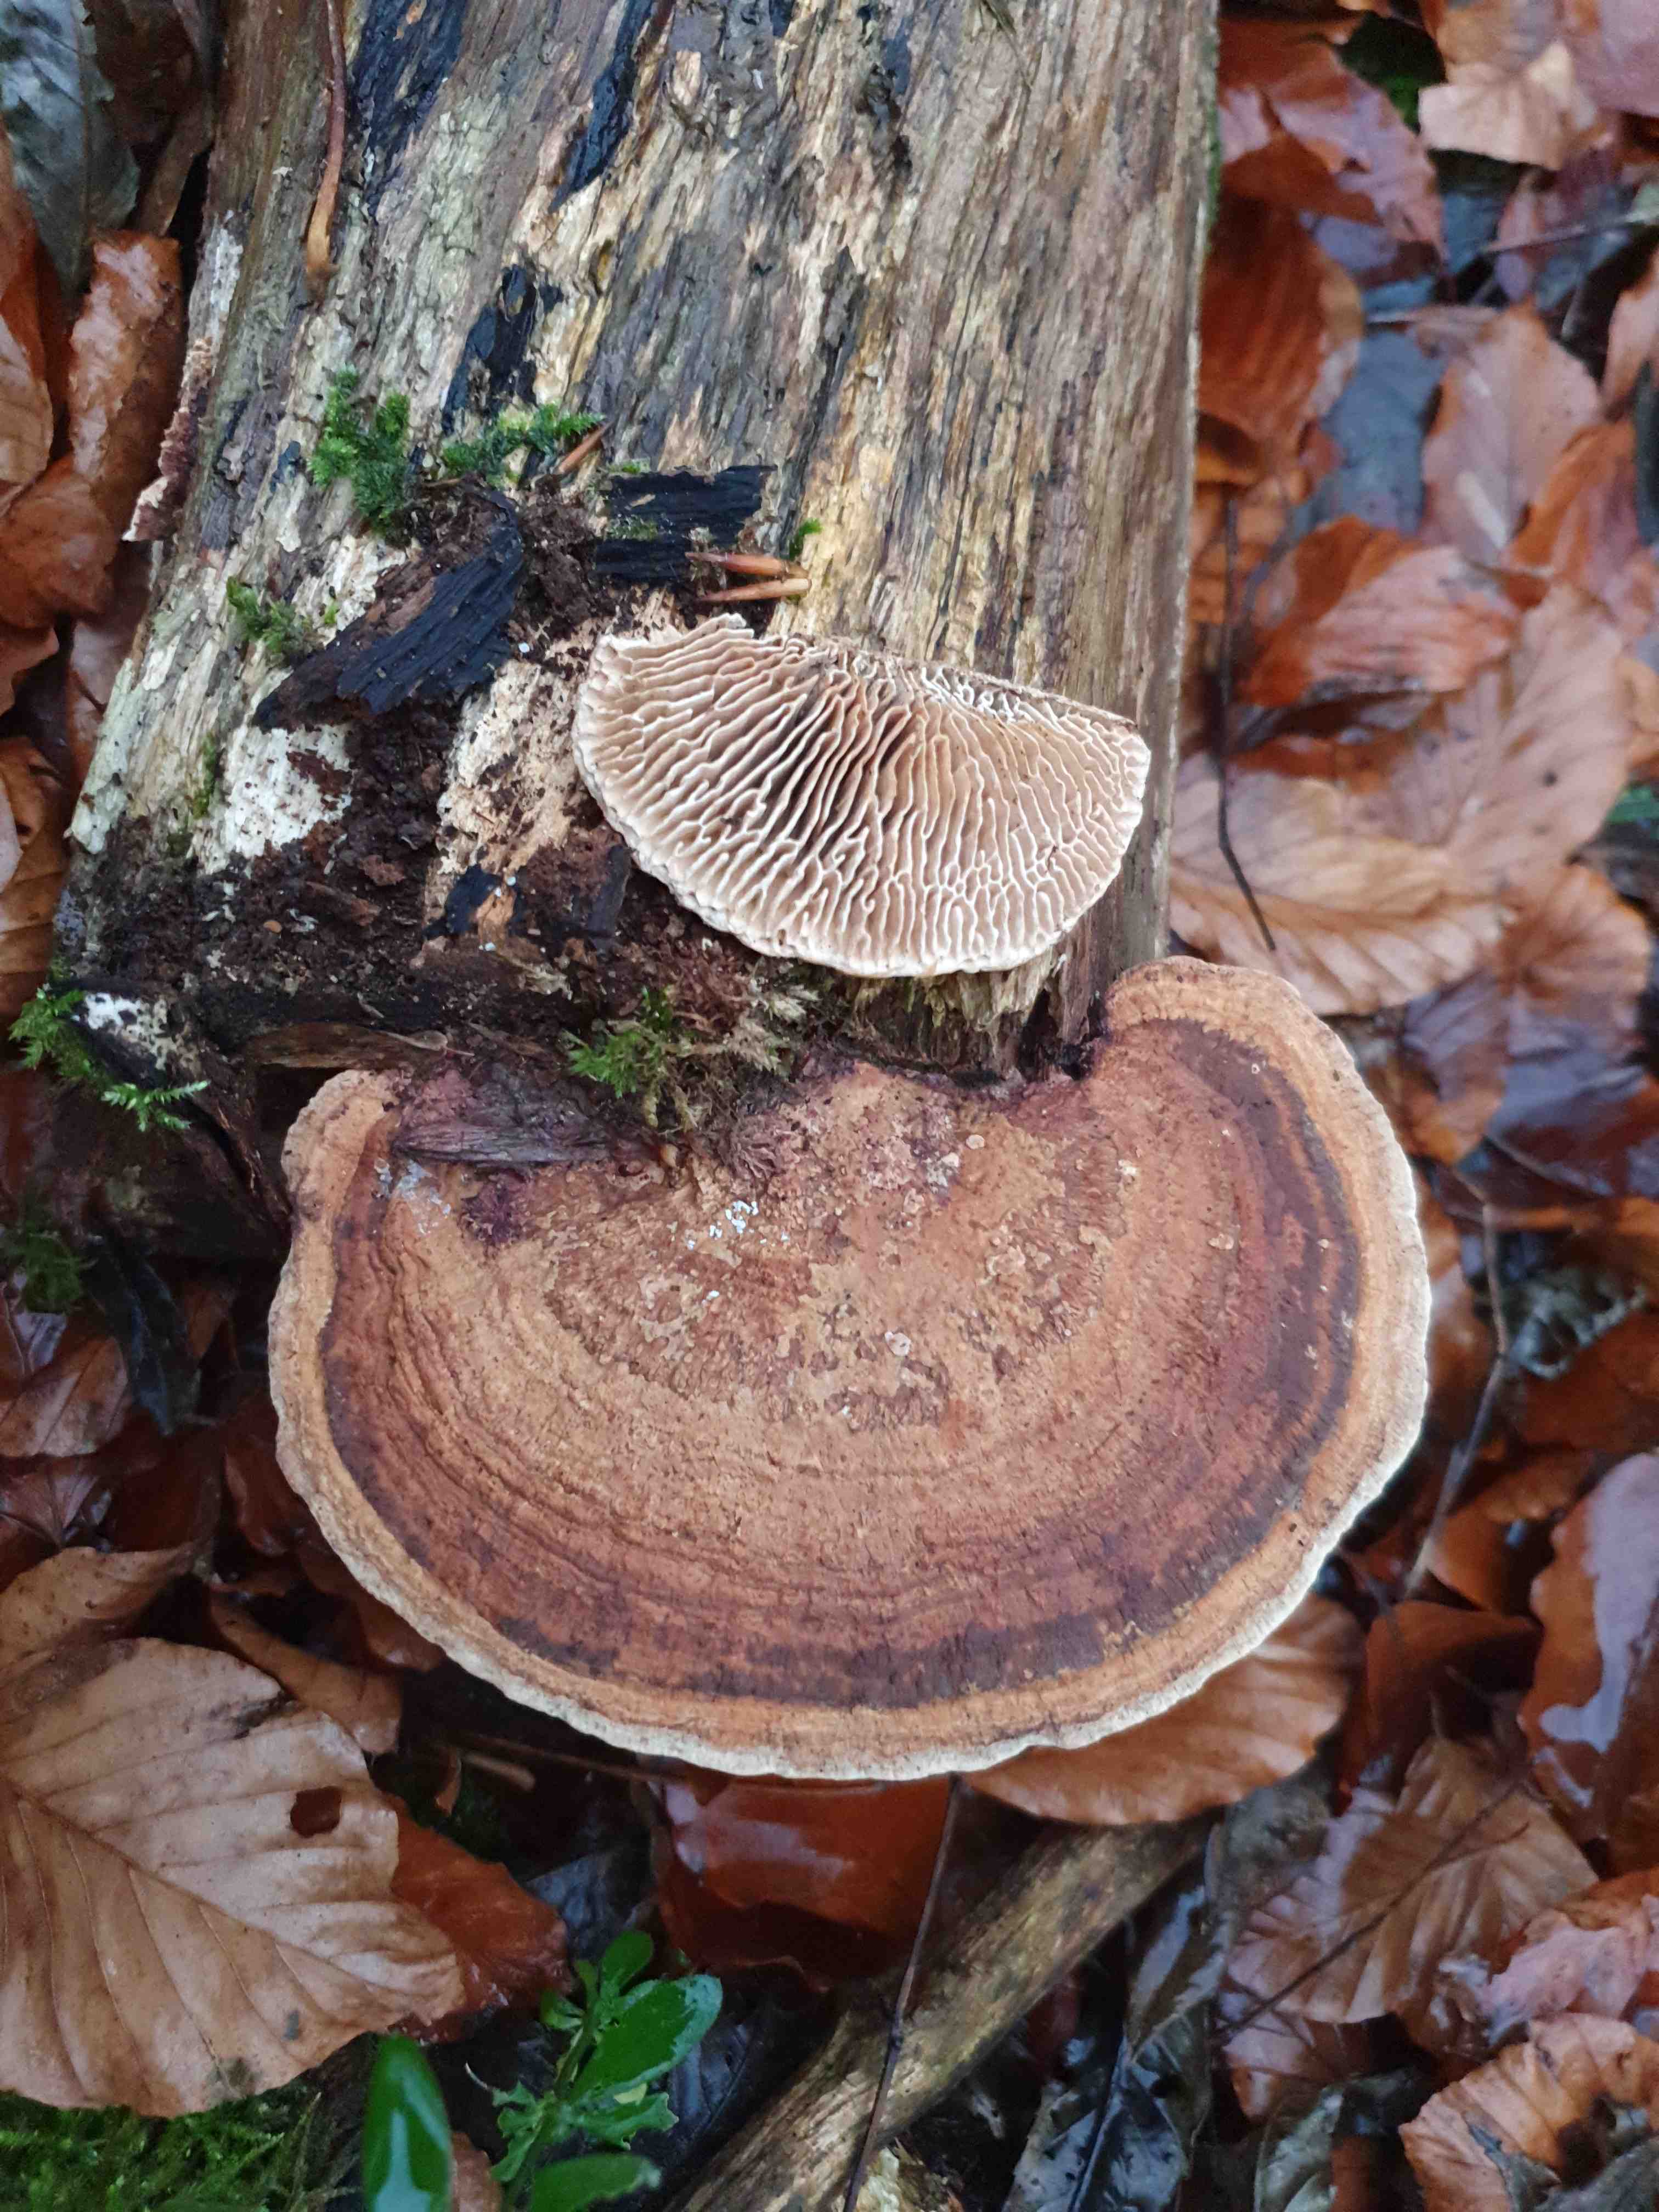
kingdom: Fungi
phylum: Basidiomycota
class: Agaricomycetes
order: Polyporales
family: Fomitopsidaceae
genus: Daedalea
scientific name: Daedalea quercina
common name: ege-labyrintsvamp
